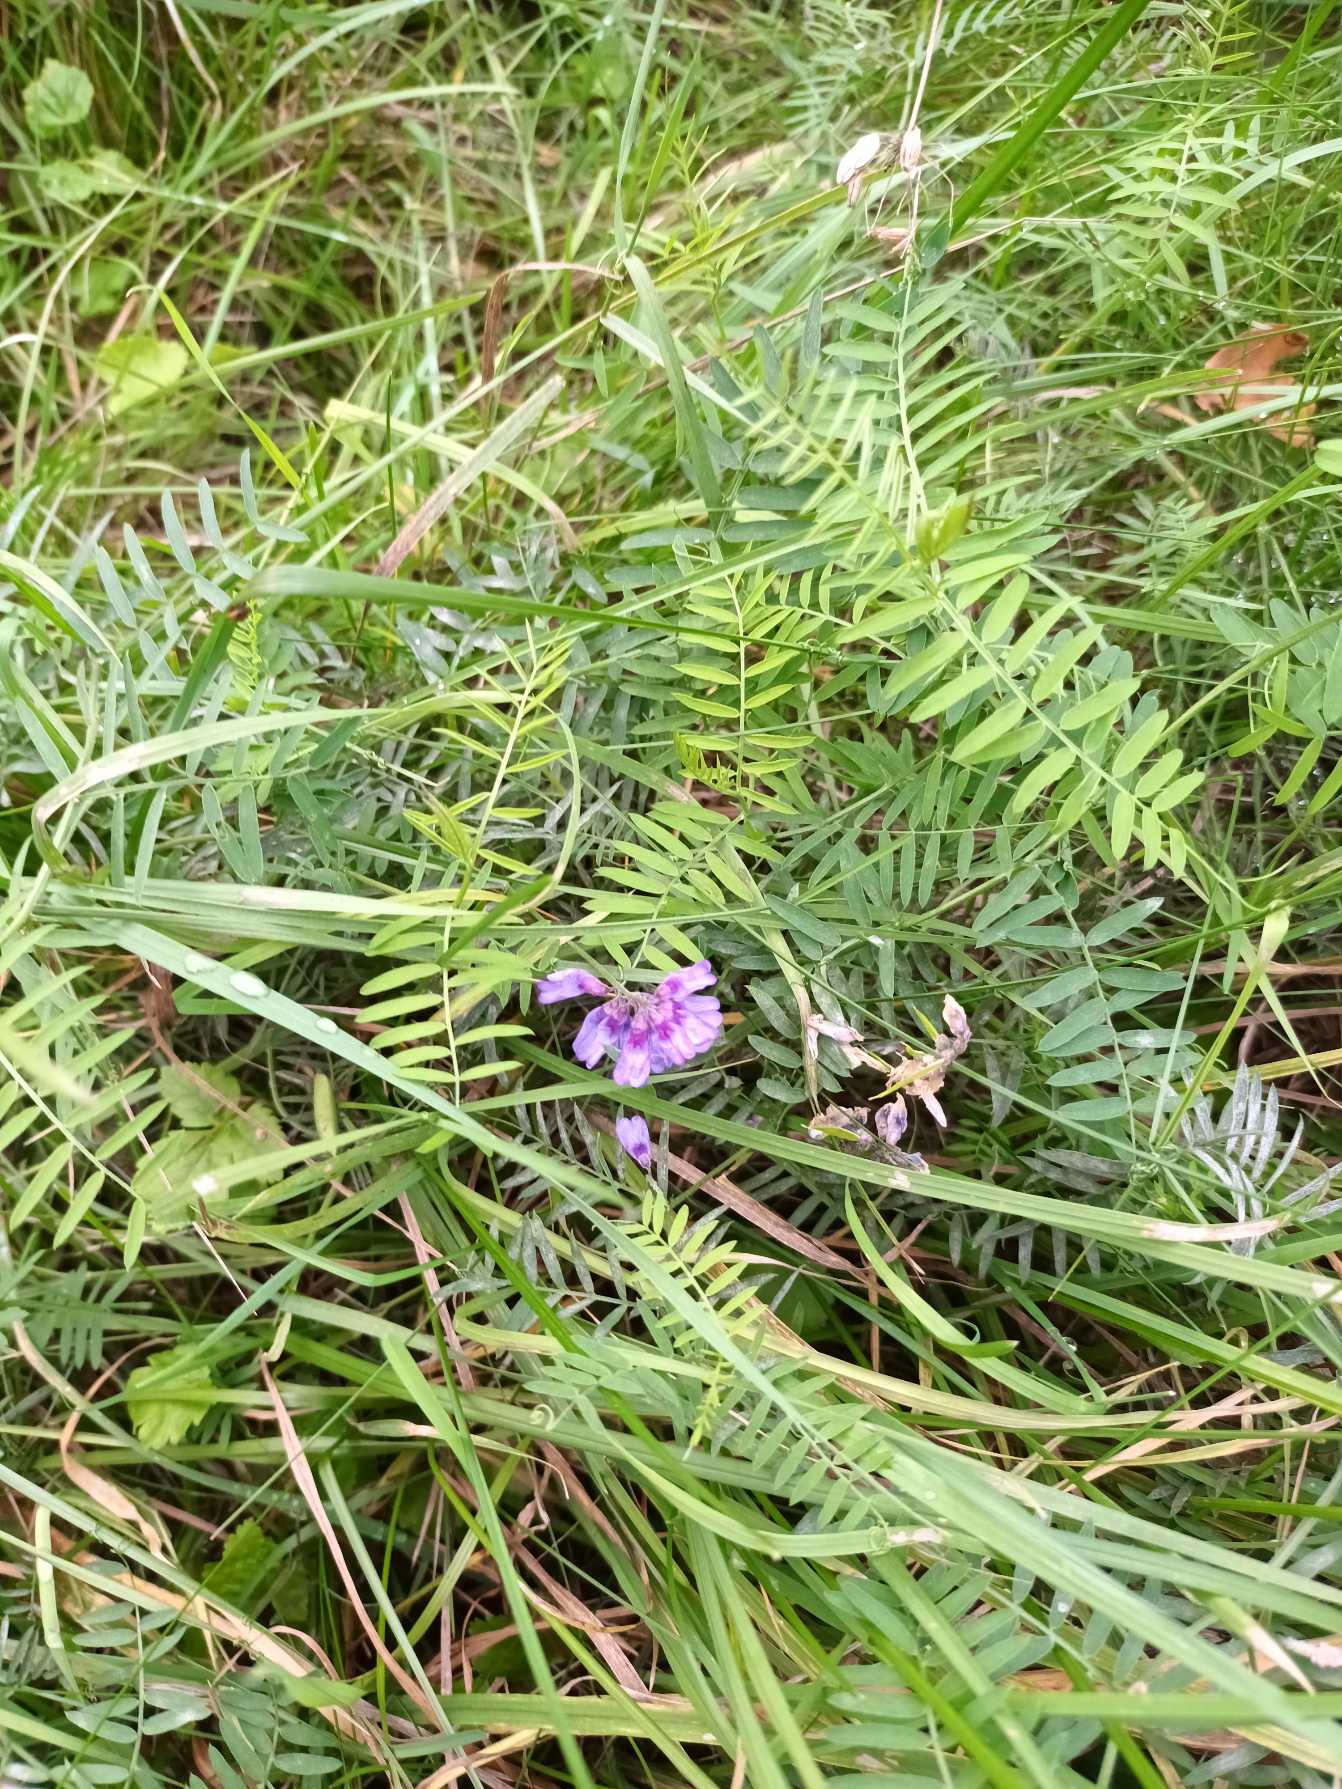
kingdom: Plantae
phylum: Tracheophyta
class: Magnoliopsida
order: Fabales
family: Fabaceae
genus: Vicia
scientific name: Vicia cracca
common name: Muse-vikke
